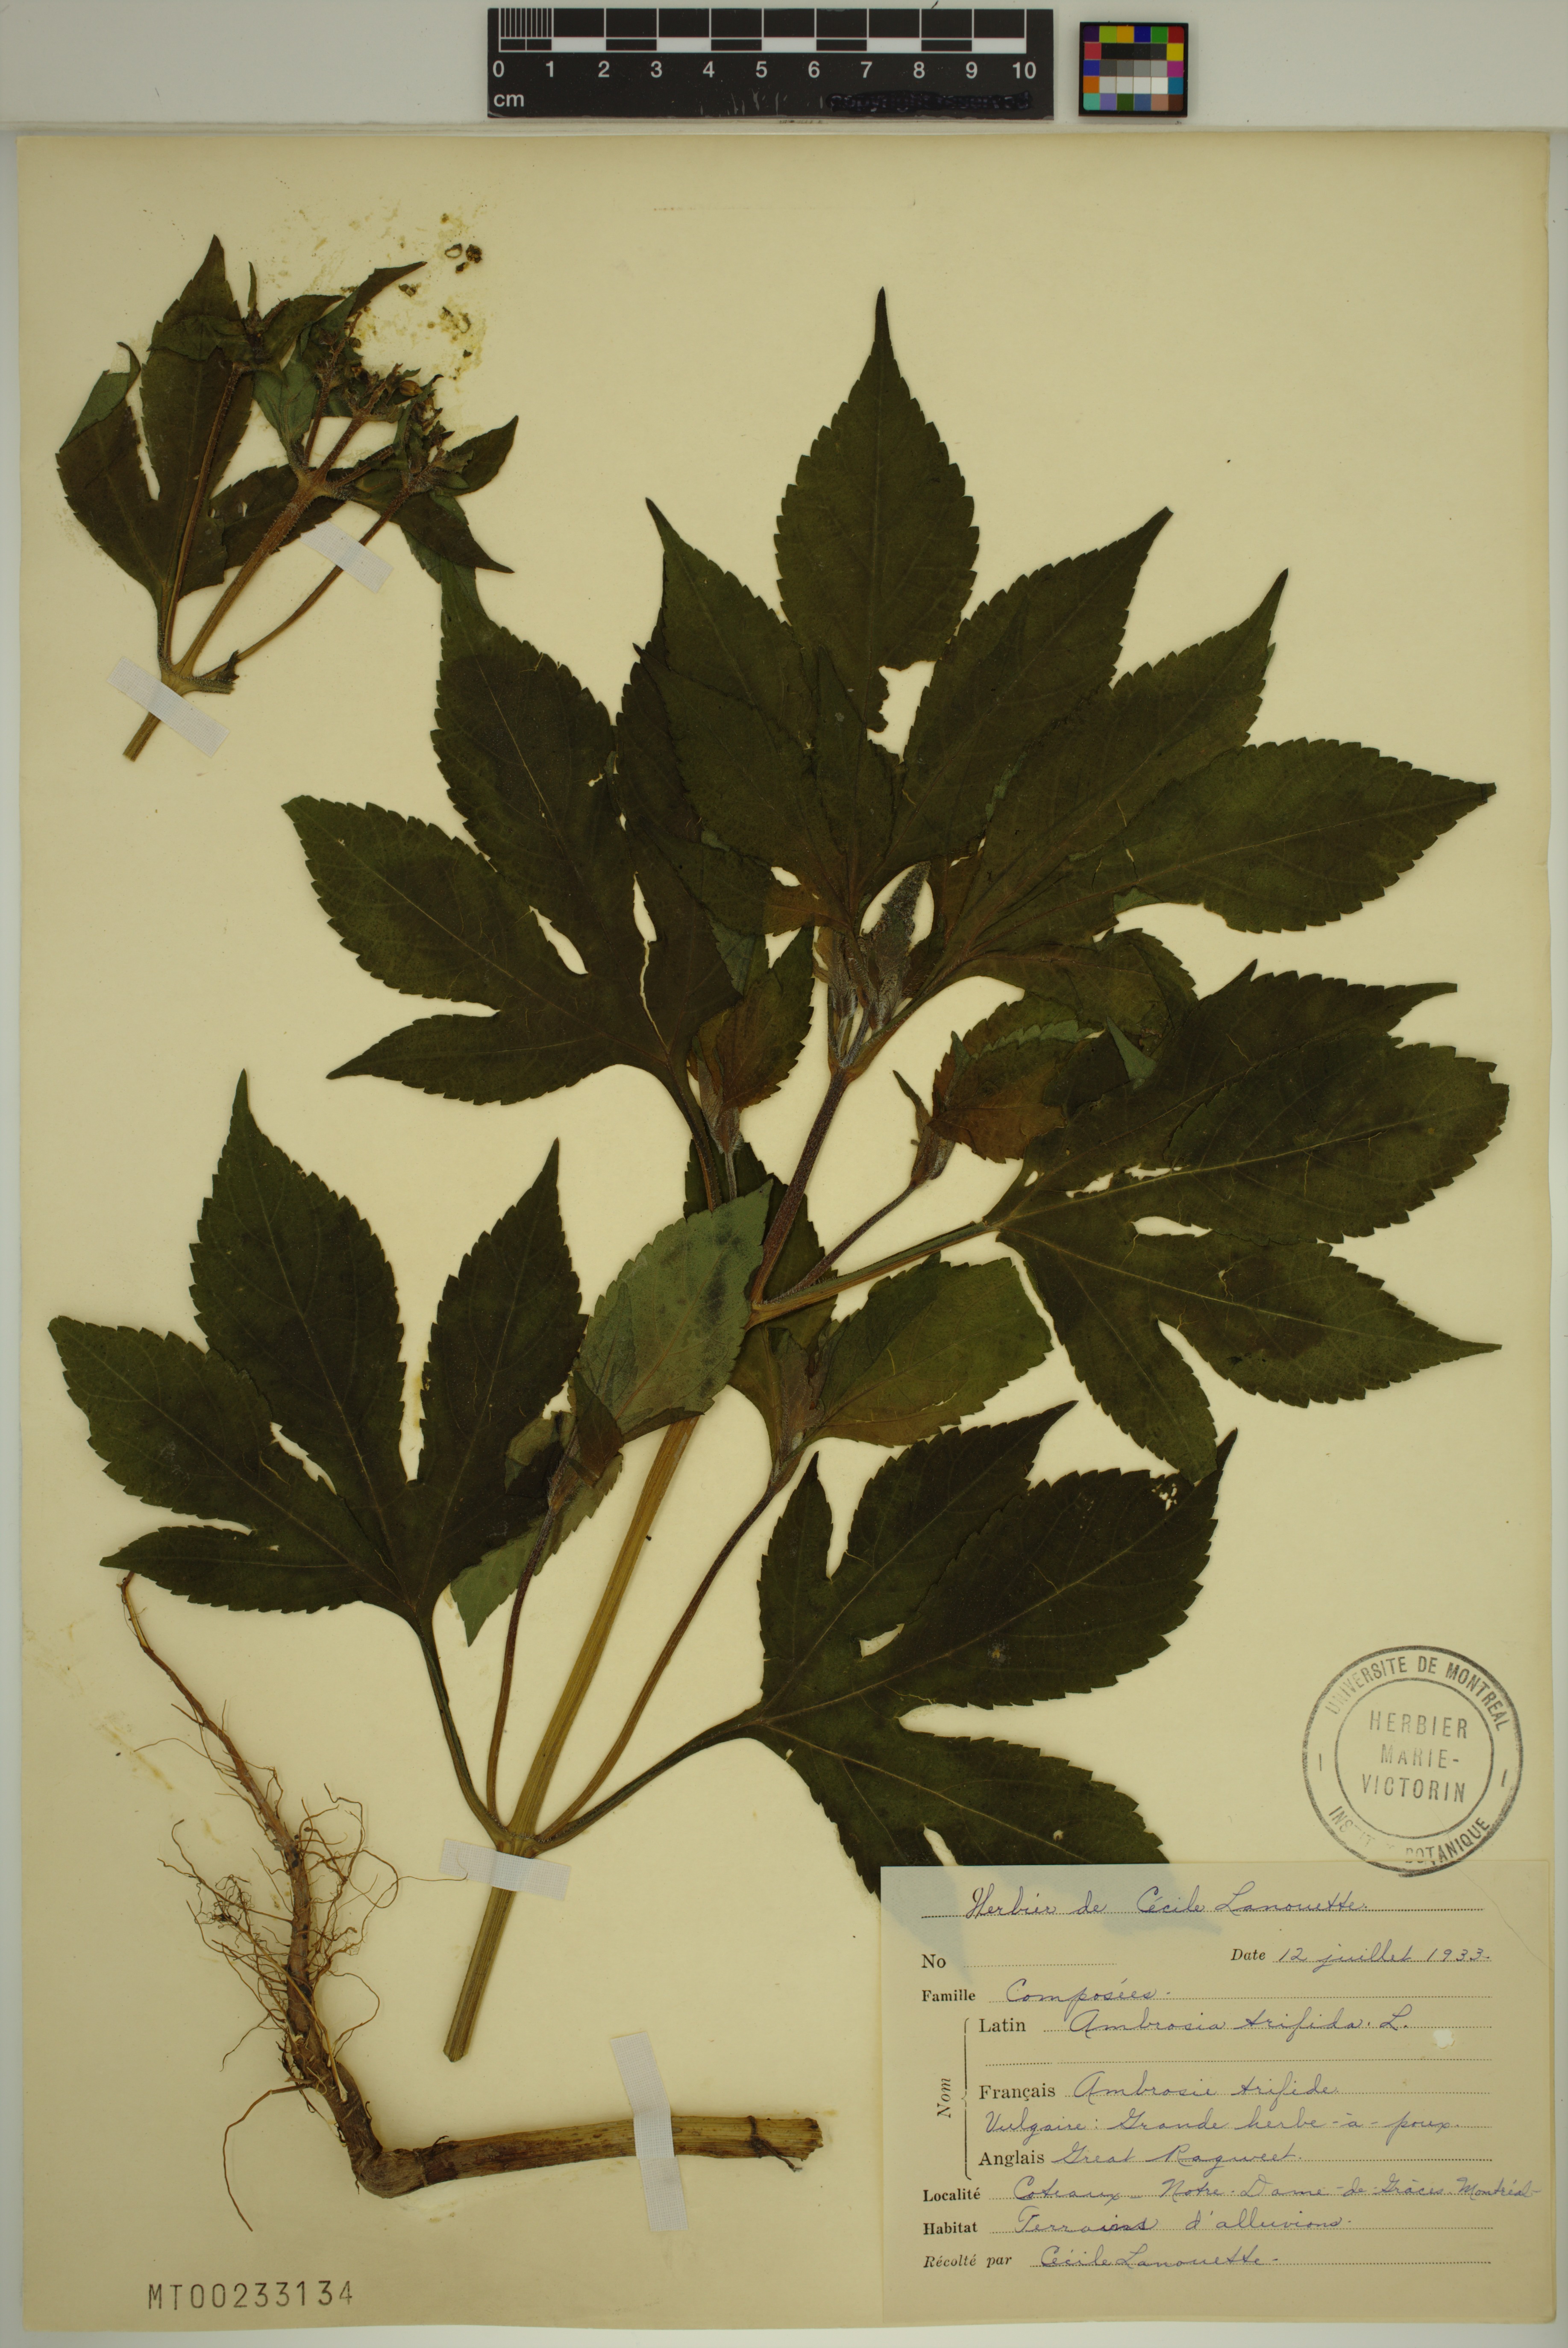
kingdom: Plantae
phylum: Tracheophyta
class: Magnoliopsida
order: Asterales
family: Asteraceae
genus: Ambrosia
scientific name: Ambrosia trifida
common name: Giant ragweed
